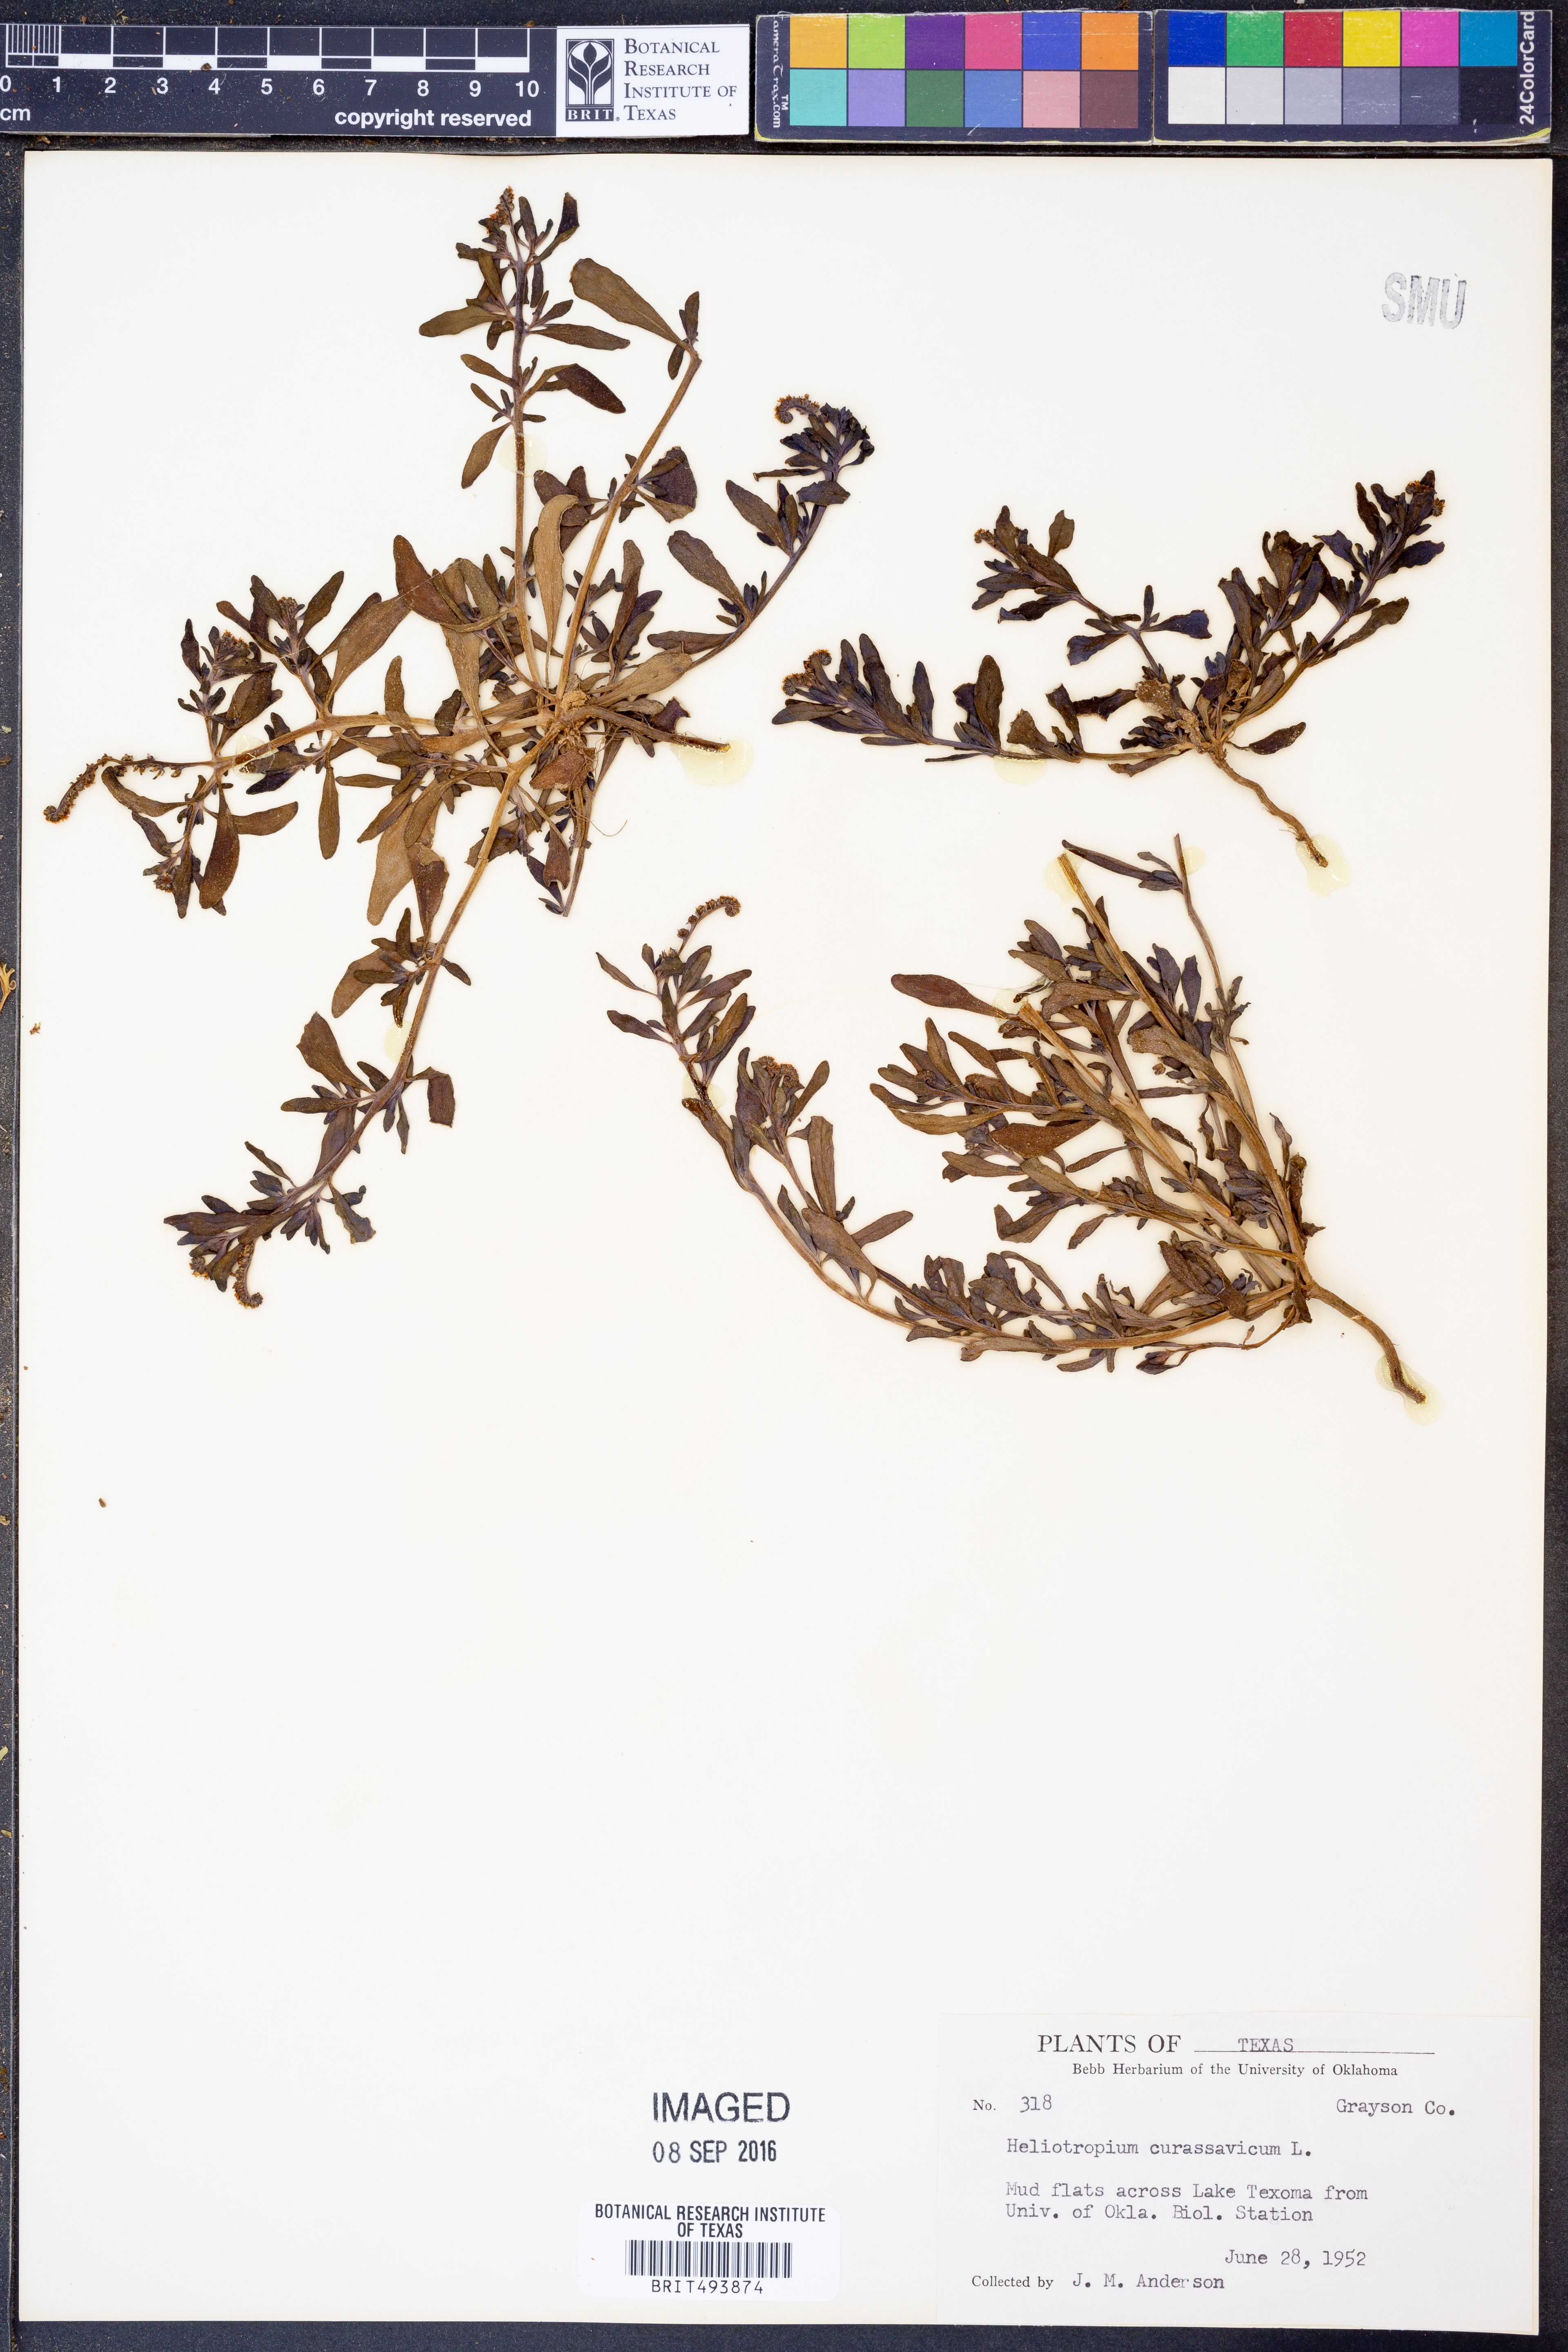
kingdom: Plantae
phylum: Tracheophyta
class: Magnoliopsida
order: Boraginales
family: Heliotropiaceae
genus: Heliotropium
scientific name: Heliotropium curassavicum
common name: Seaside heliotrope
